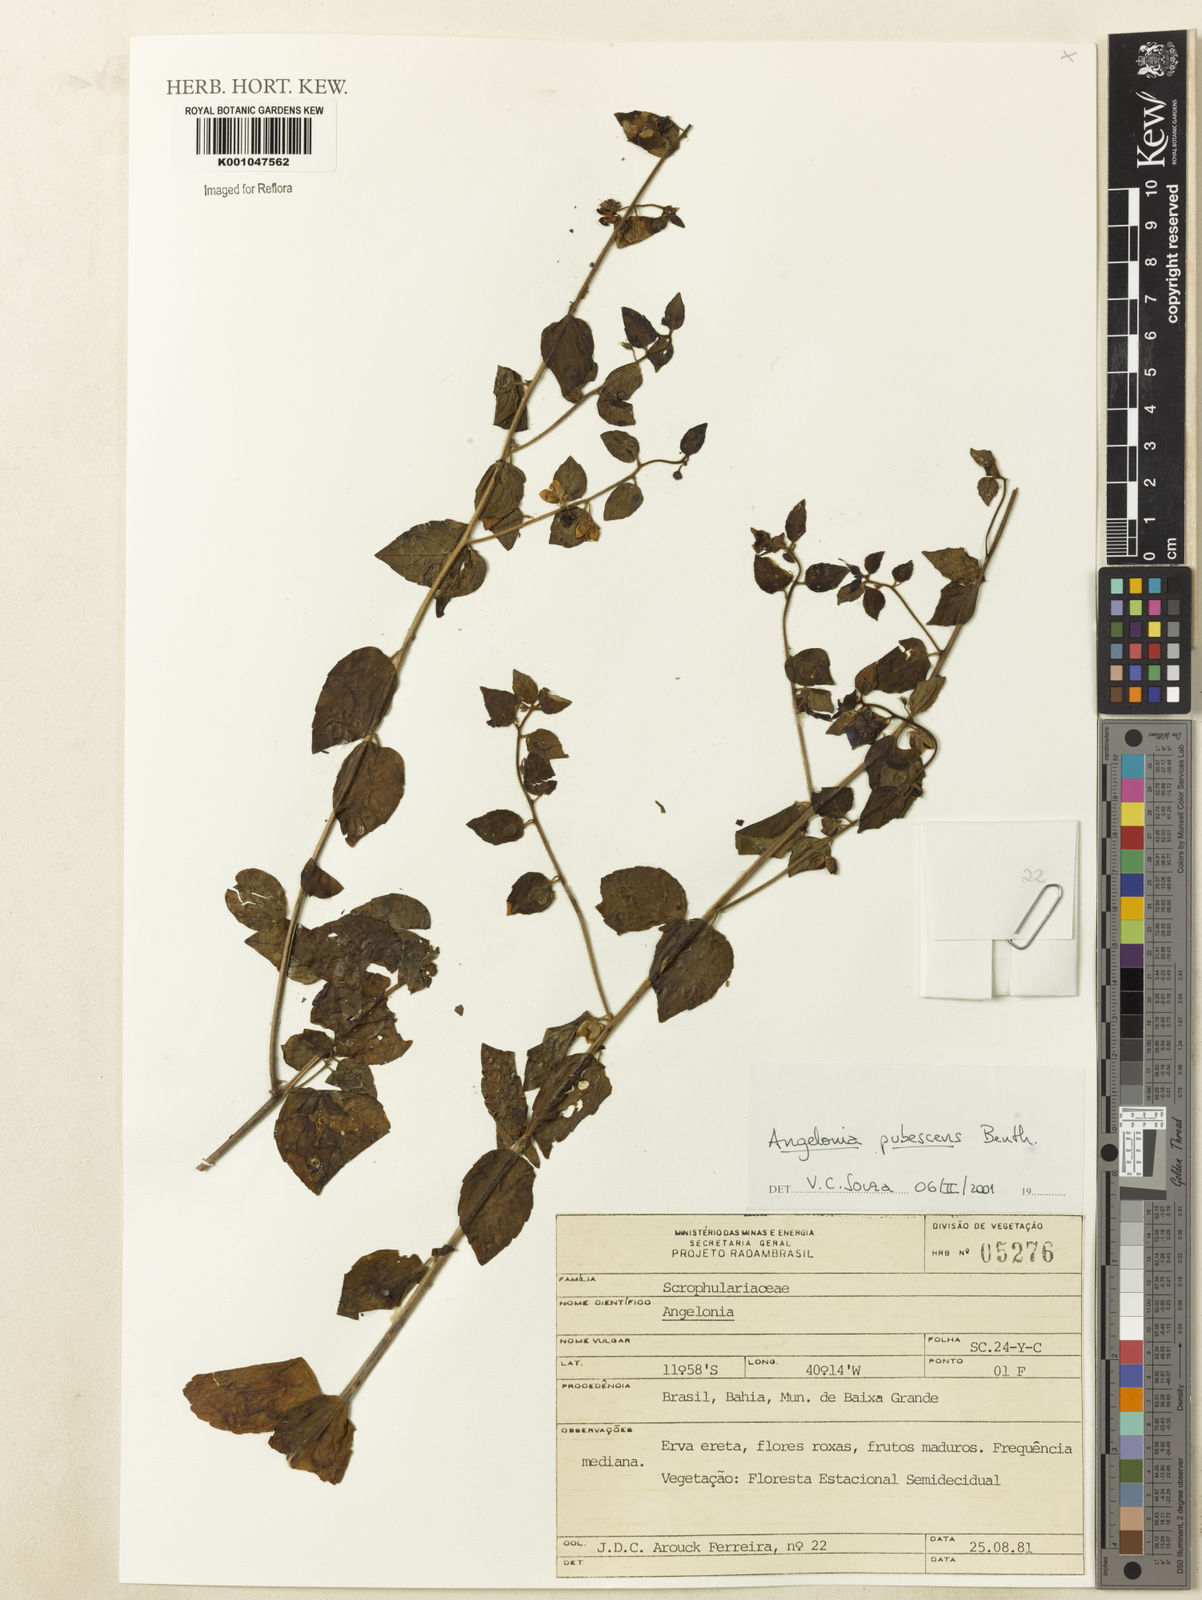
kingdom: Plantae
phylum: Tracheophyta
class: Magnoliopsida
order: Lamiales
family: Plantaginaceae
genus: Angelonia
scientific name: Angelonia pubescens
